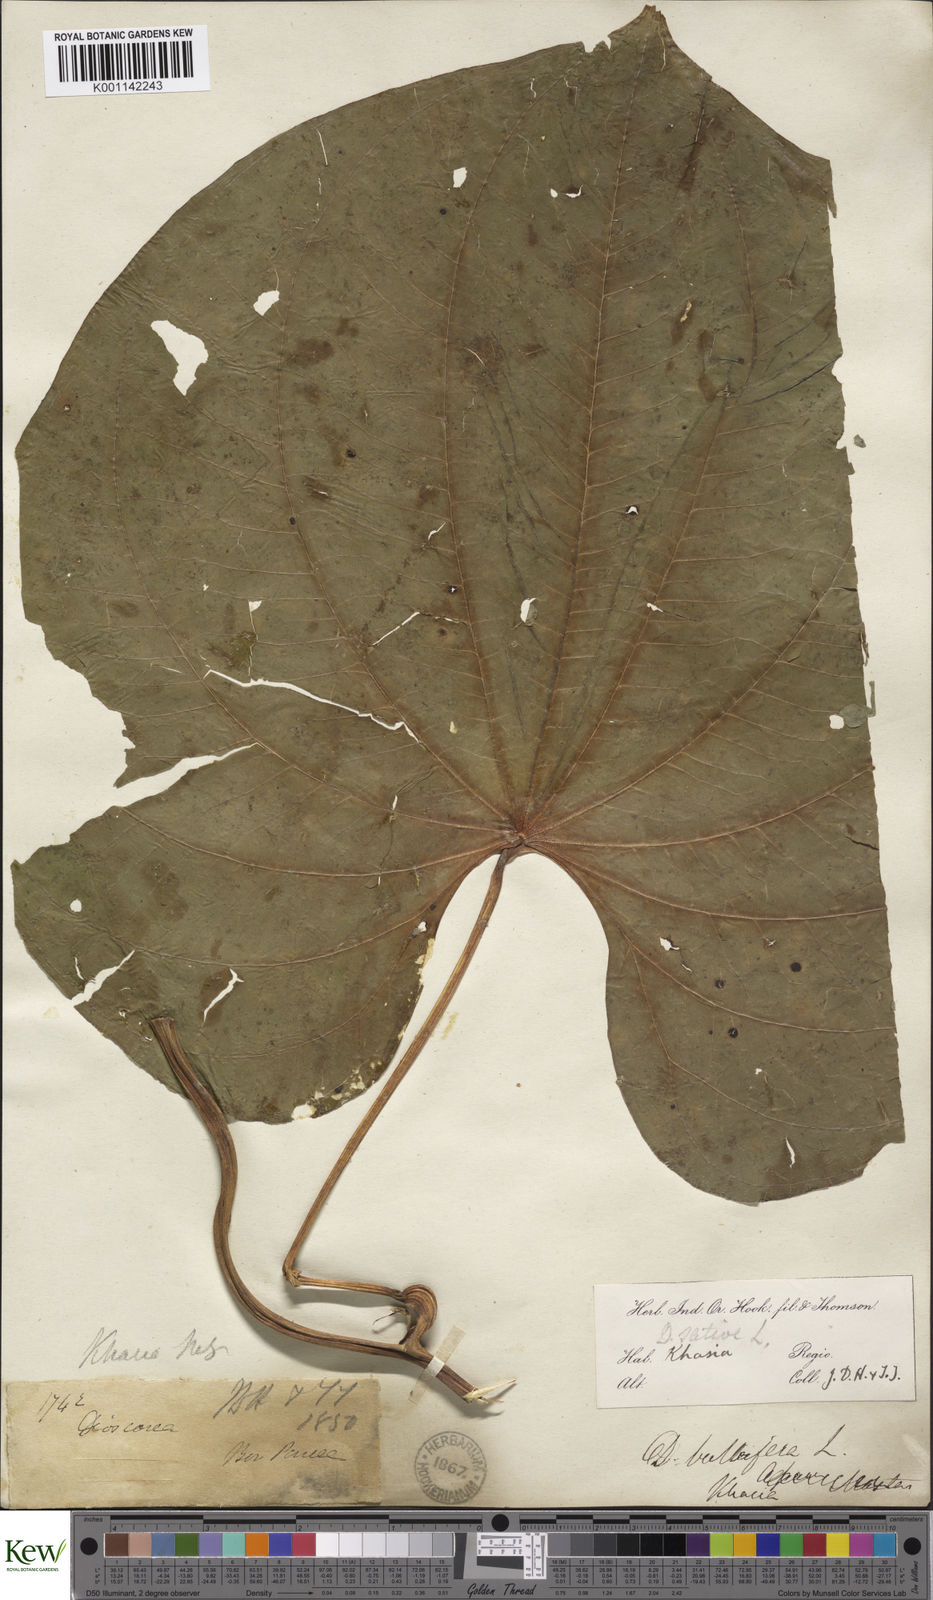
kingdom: Plantae
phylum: Tracheophyta
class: Liliopsida
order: Dioscoreales
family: Dioscoreaceae
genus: Dioscorea
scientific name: Dioscorea bulbifera
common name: Air yam
